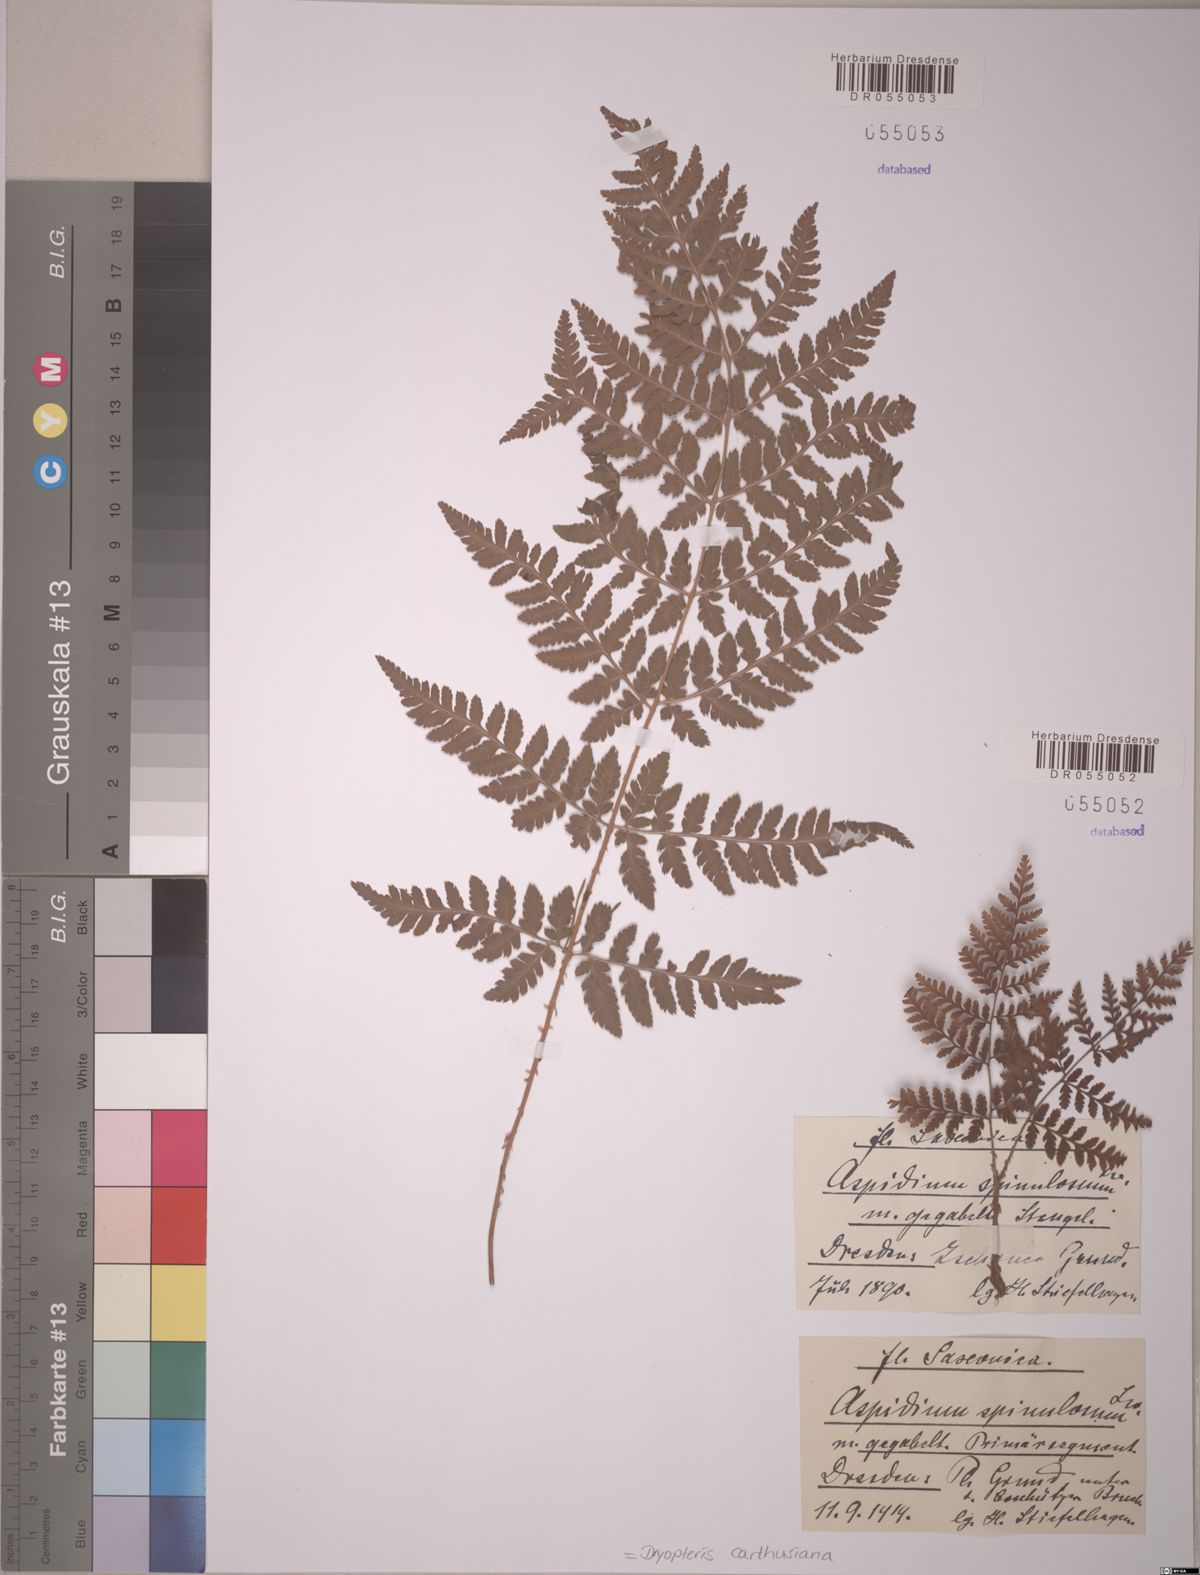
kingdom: Plantae
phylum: Tracheophyta
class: Polypodiopsida
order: Polypodiales
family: Dryopteridaceae
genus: Dryopteris
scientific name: Dryopteris carthusiana
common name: Narrow buckler-fern
